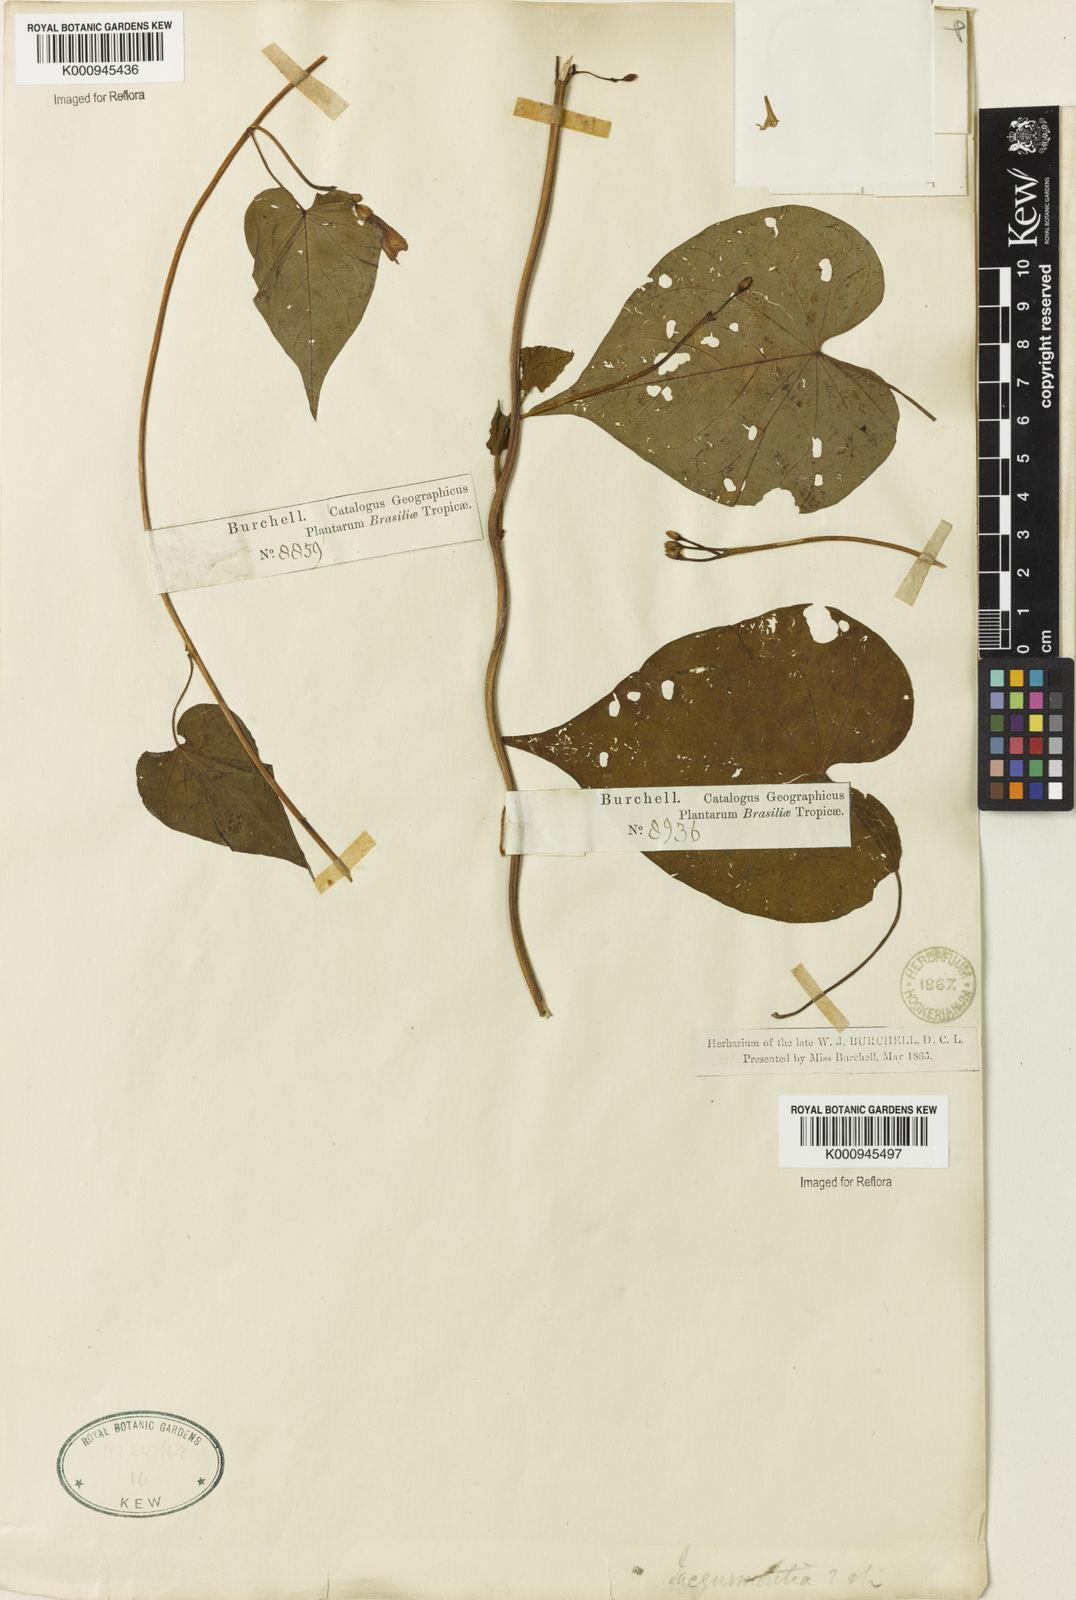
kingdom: Plantae
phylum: Tracheophyta
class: Magnoliopsida
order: Lamiales
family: Verbenaceae
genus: Stachytarpheta
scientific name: Stachytarpheta glabra
